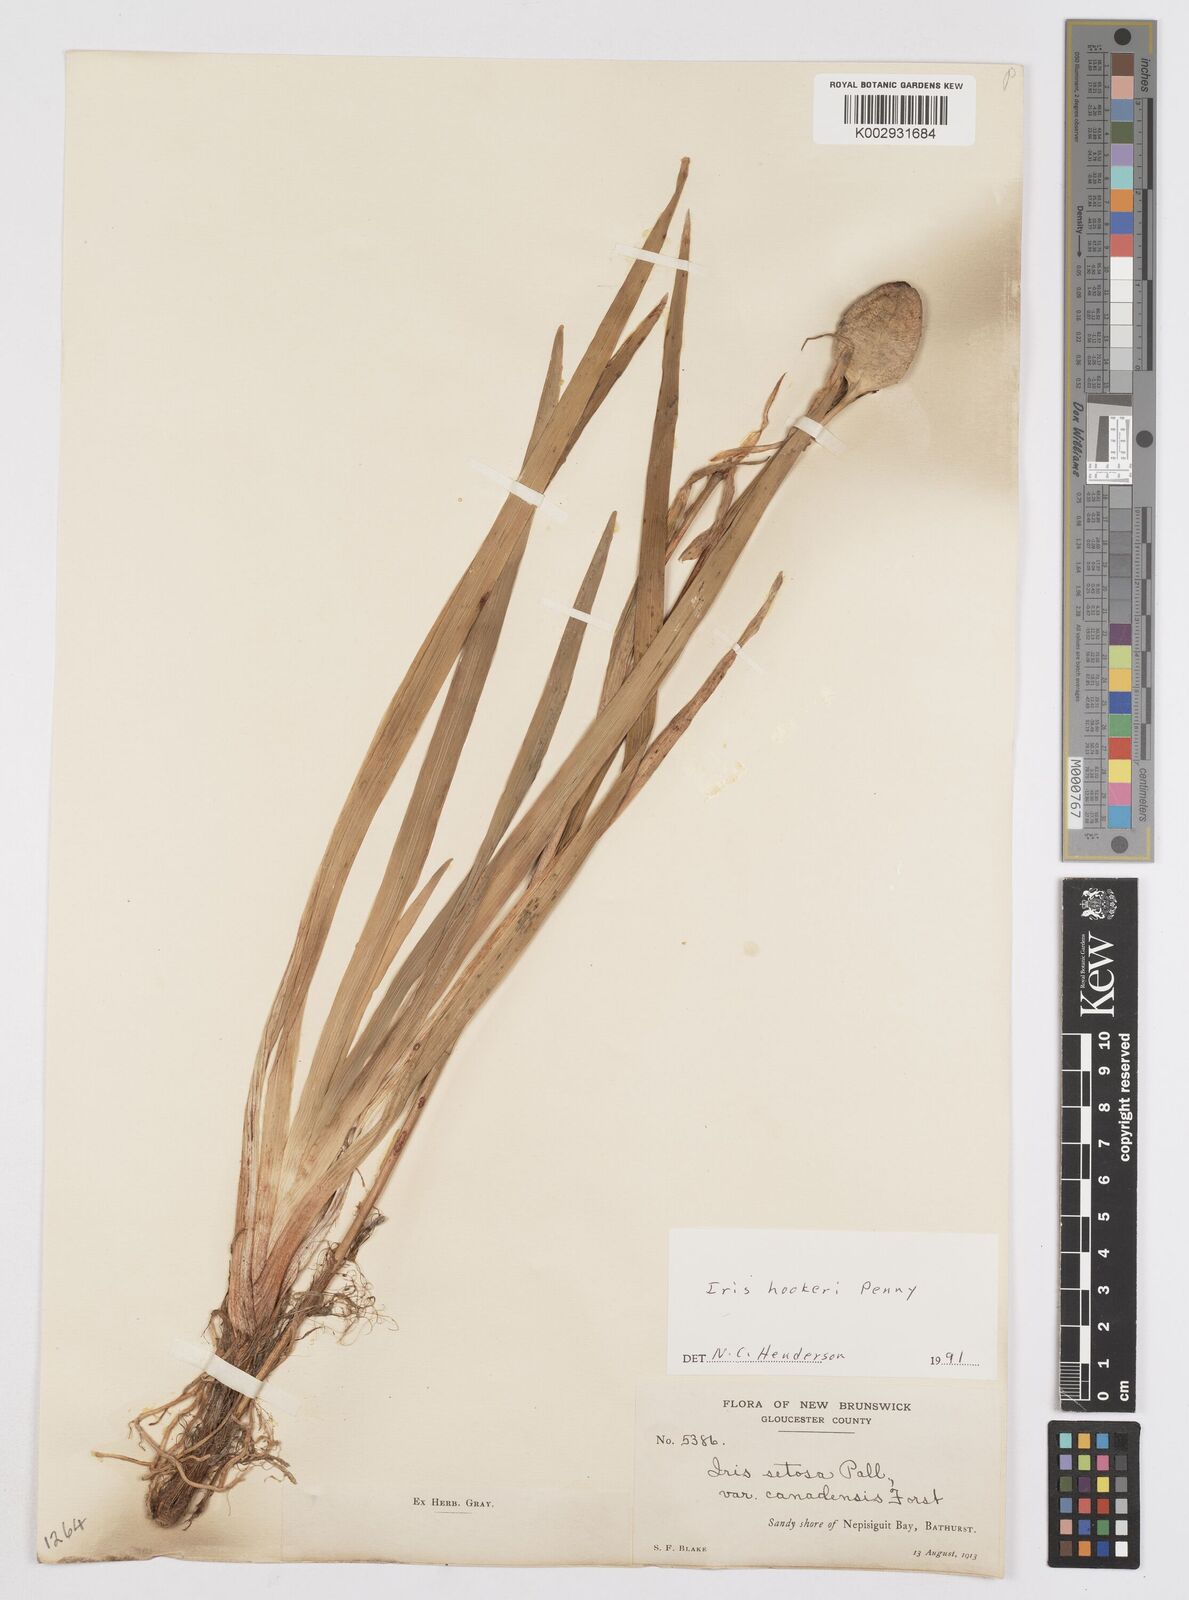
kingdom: Plantae
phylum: Tracheophyta
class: Liliopsida
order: Asparagales
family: Iridaceae
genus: Iris
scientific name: Iris setosa
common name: Arctic blue flag
